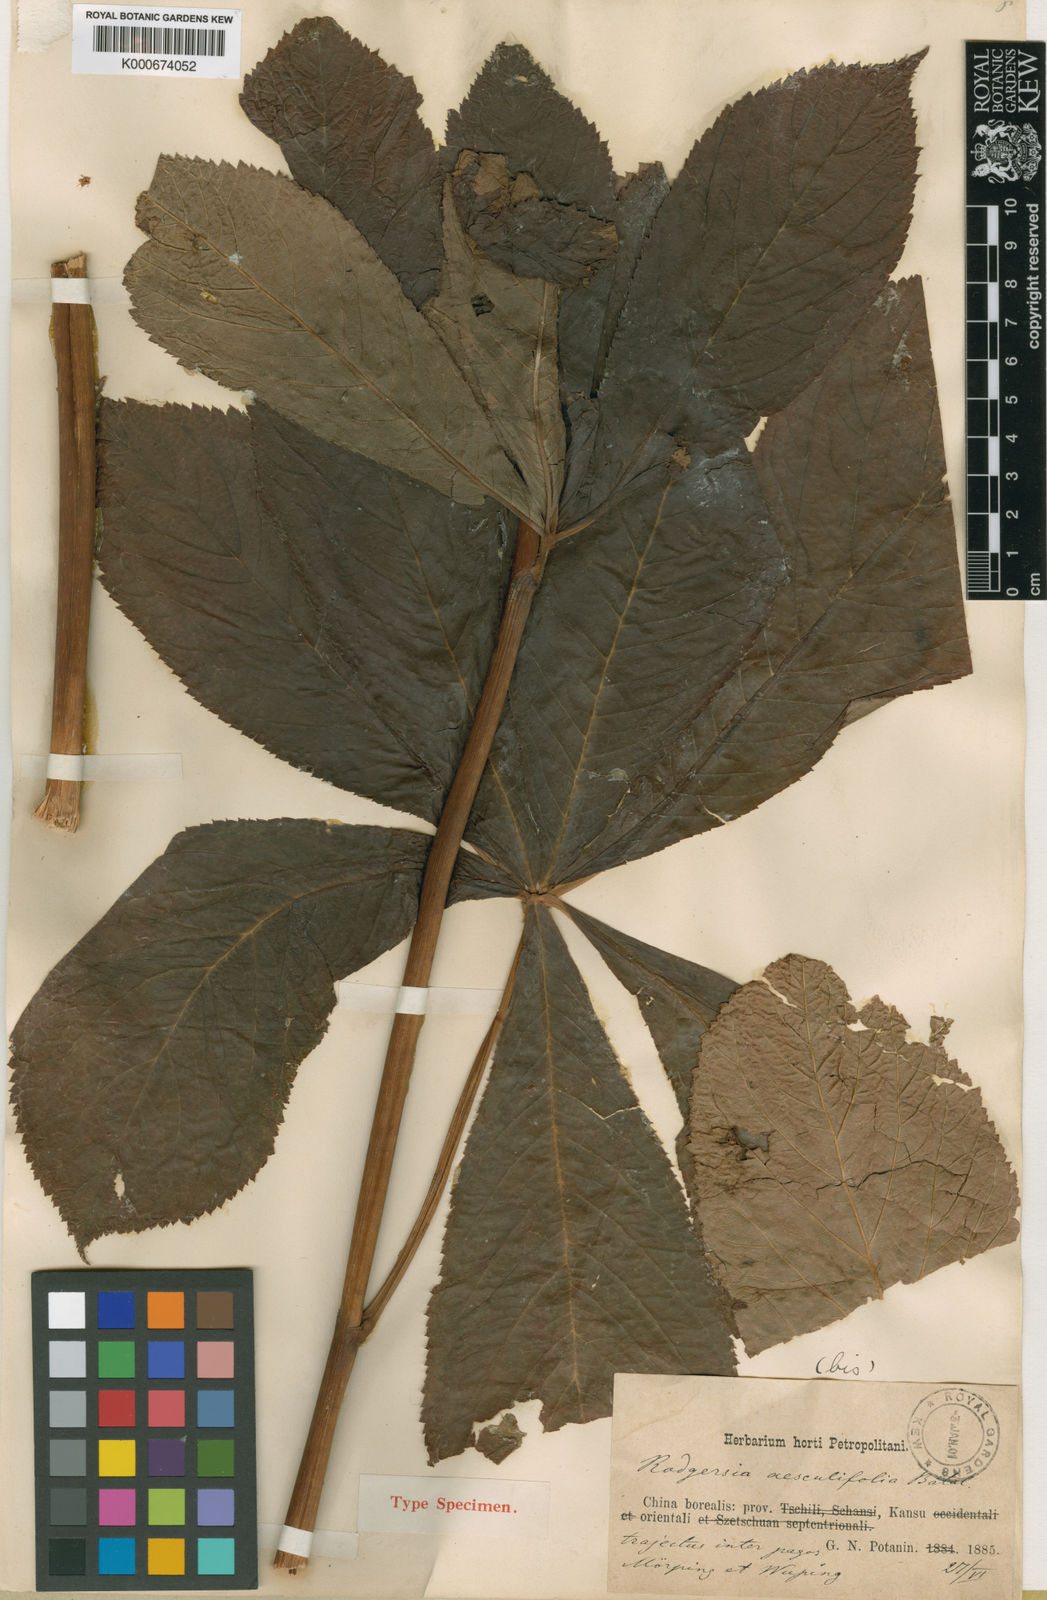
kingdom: Plantae
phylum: Tracheophyta
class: Magnoliopsida
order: Saxifragales
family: Saxifragaceae
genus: Rodgersia
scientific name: Rodgersia aesculifolia
